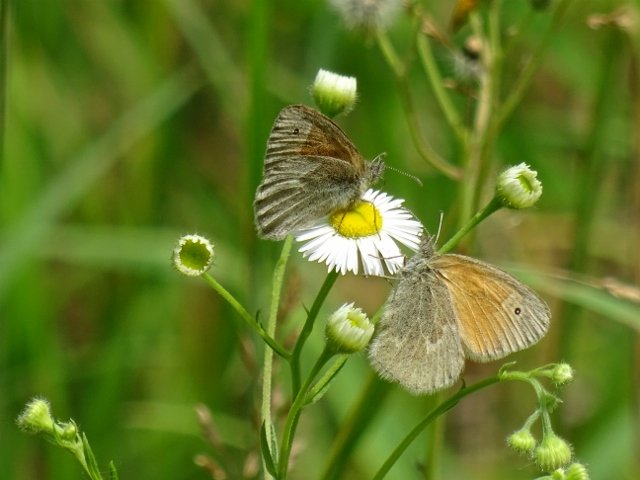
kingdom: Animalia
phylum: Arthropoda
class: Insecta
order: Lepidoptera
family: Nymphalidae
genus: Coenonympha
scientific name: Coenonympha tullia
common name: Large Heath
